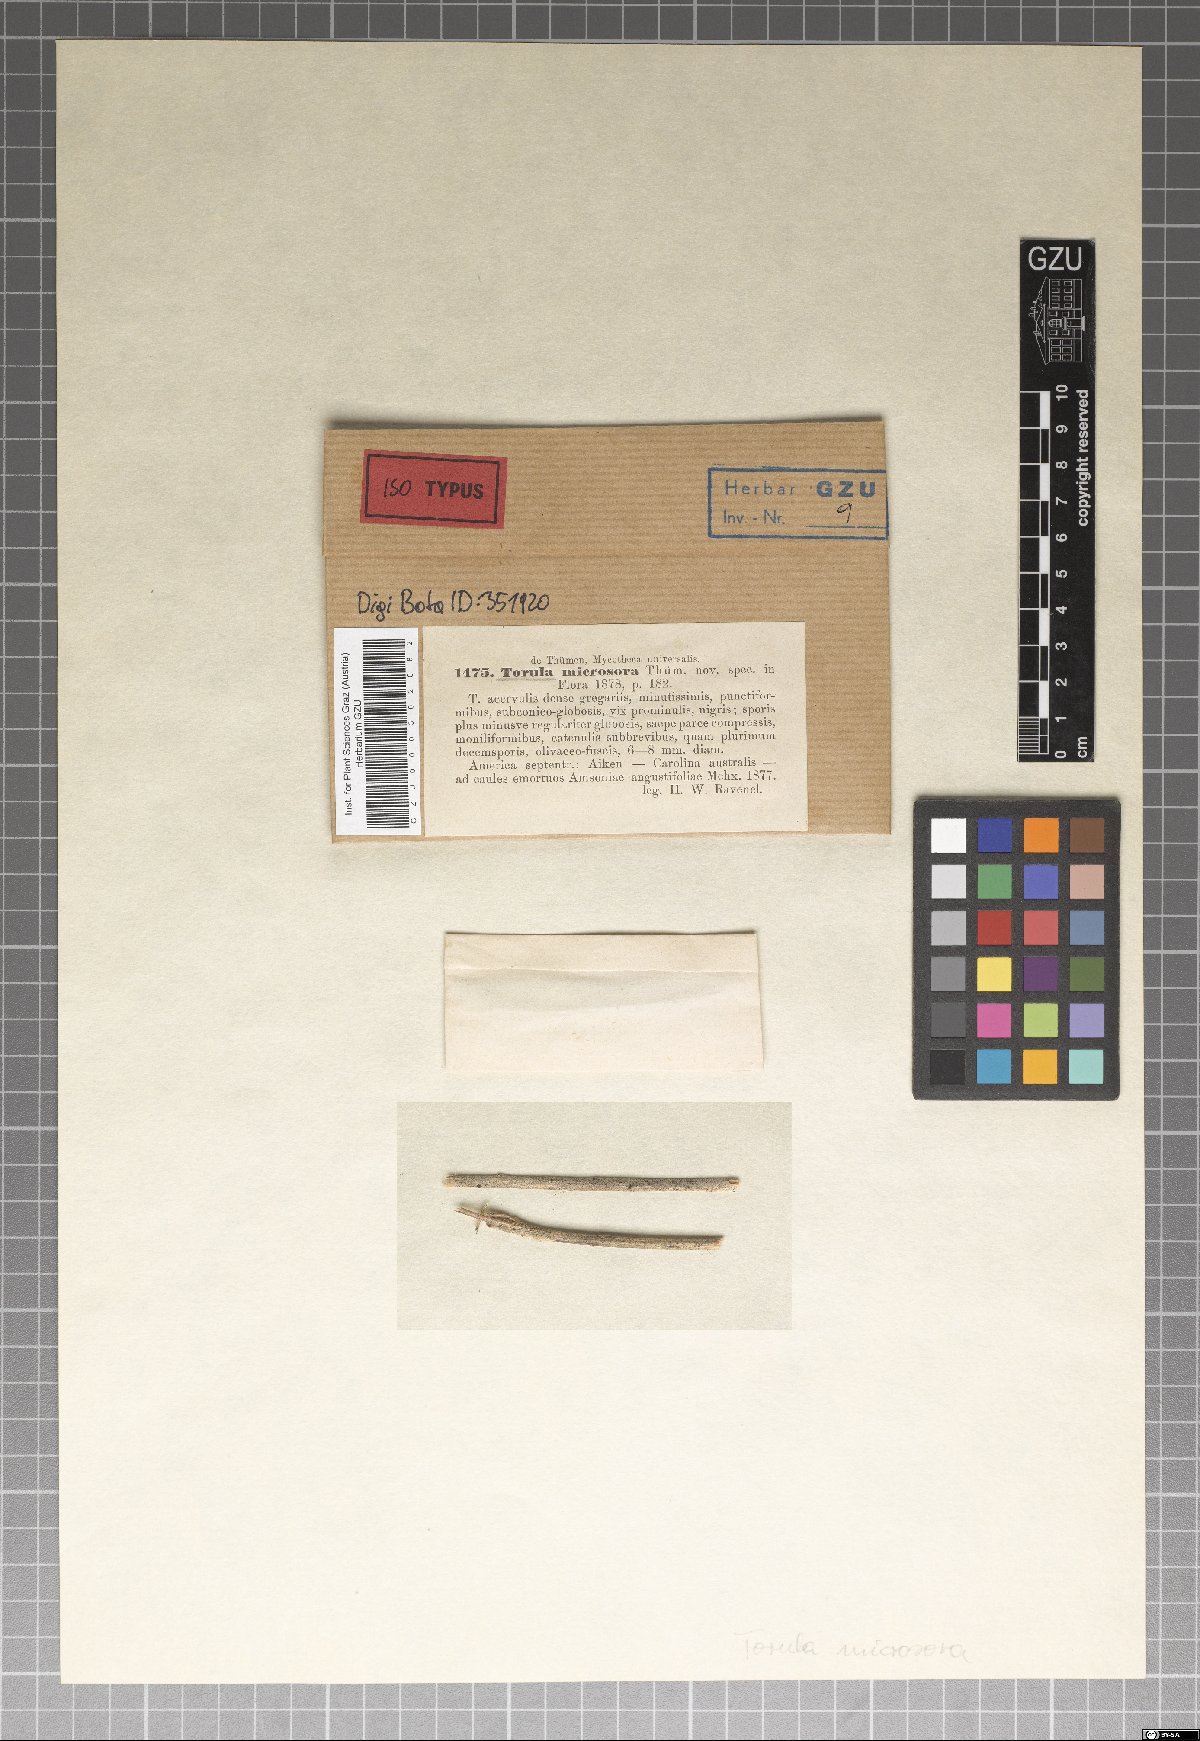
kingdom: Fungi
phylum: Ascomycota
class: Dothideomycetes
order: Capnodiales
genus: Torula
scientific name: Torula
